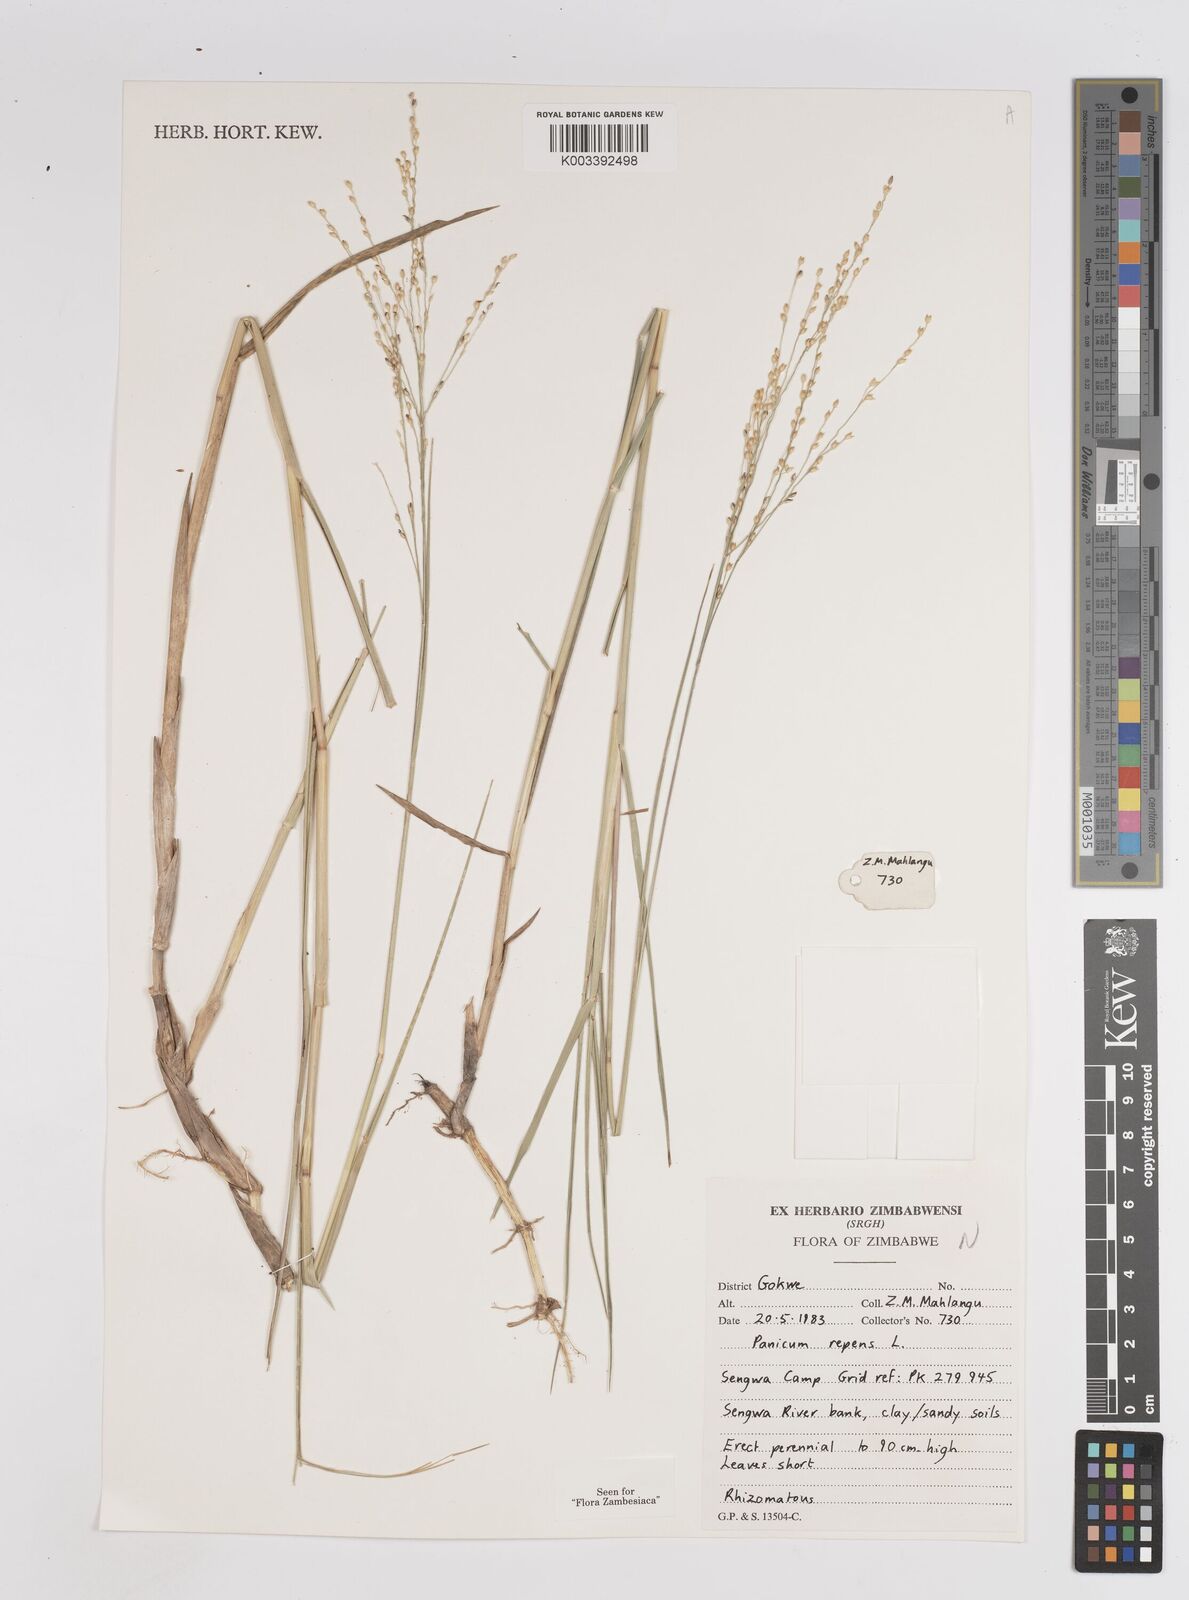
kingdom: Plantae
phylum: Tracheophyta
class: Liliopsida
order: Poales
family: Poaceae
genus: Panicum
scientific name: Panicum repens
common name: Torpedo grass
